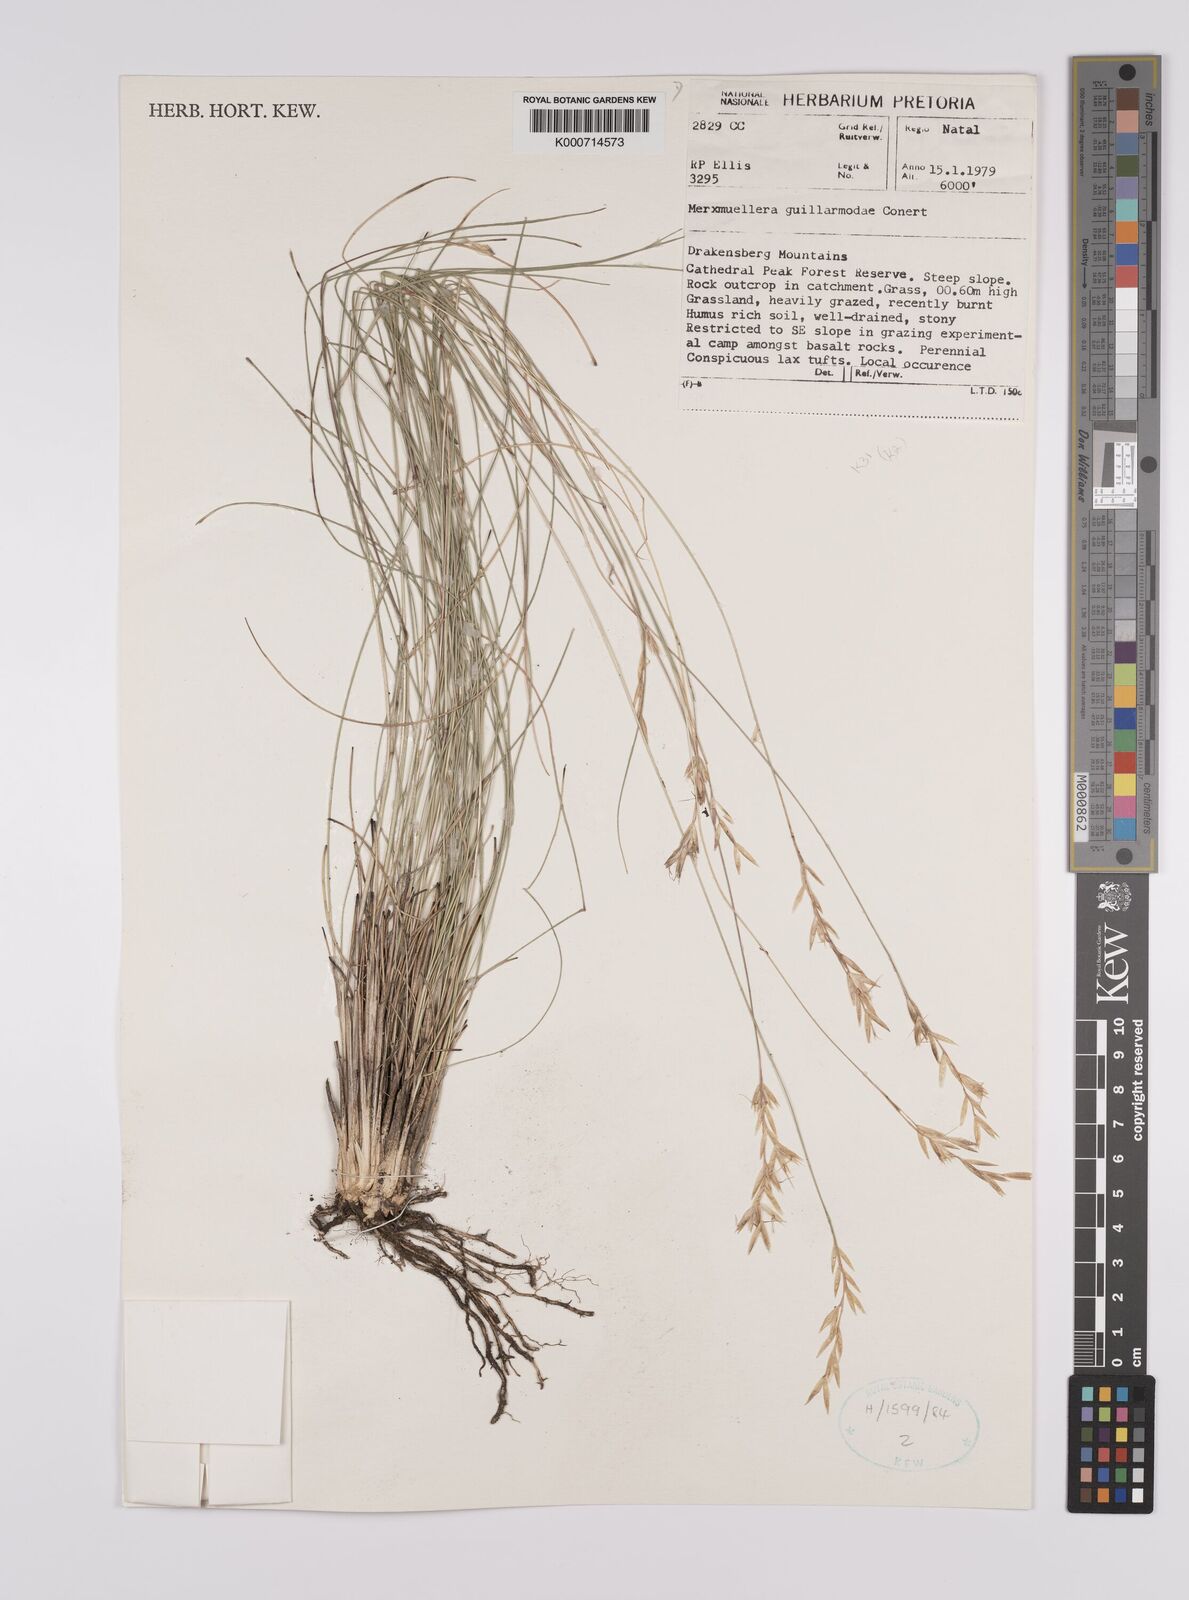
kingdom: Plantae
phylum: Tracheophyta
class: Liliopsida
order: Poales
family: Poaceae
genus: Rytidosperma
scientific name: Rytidosperma
